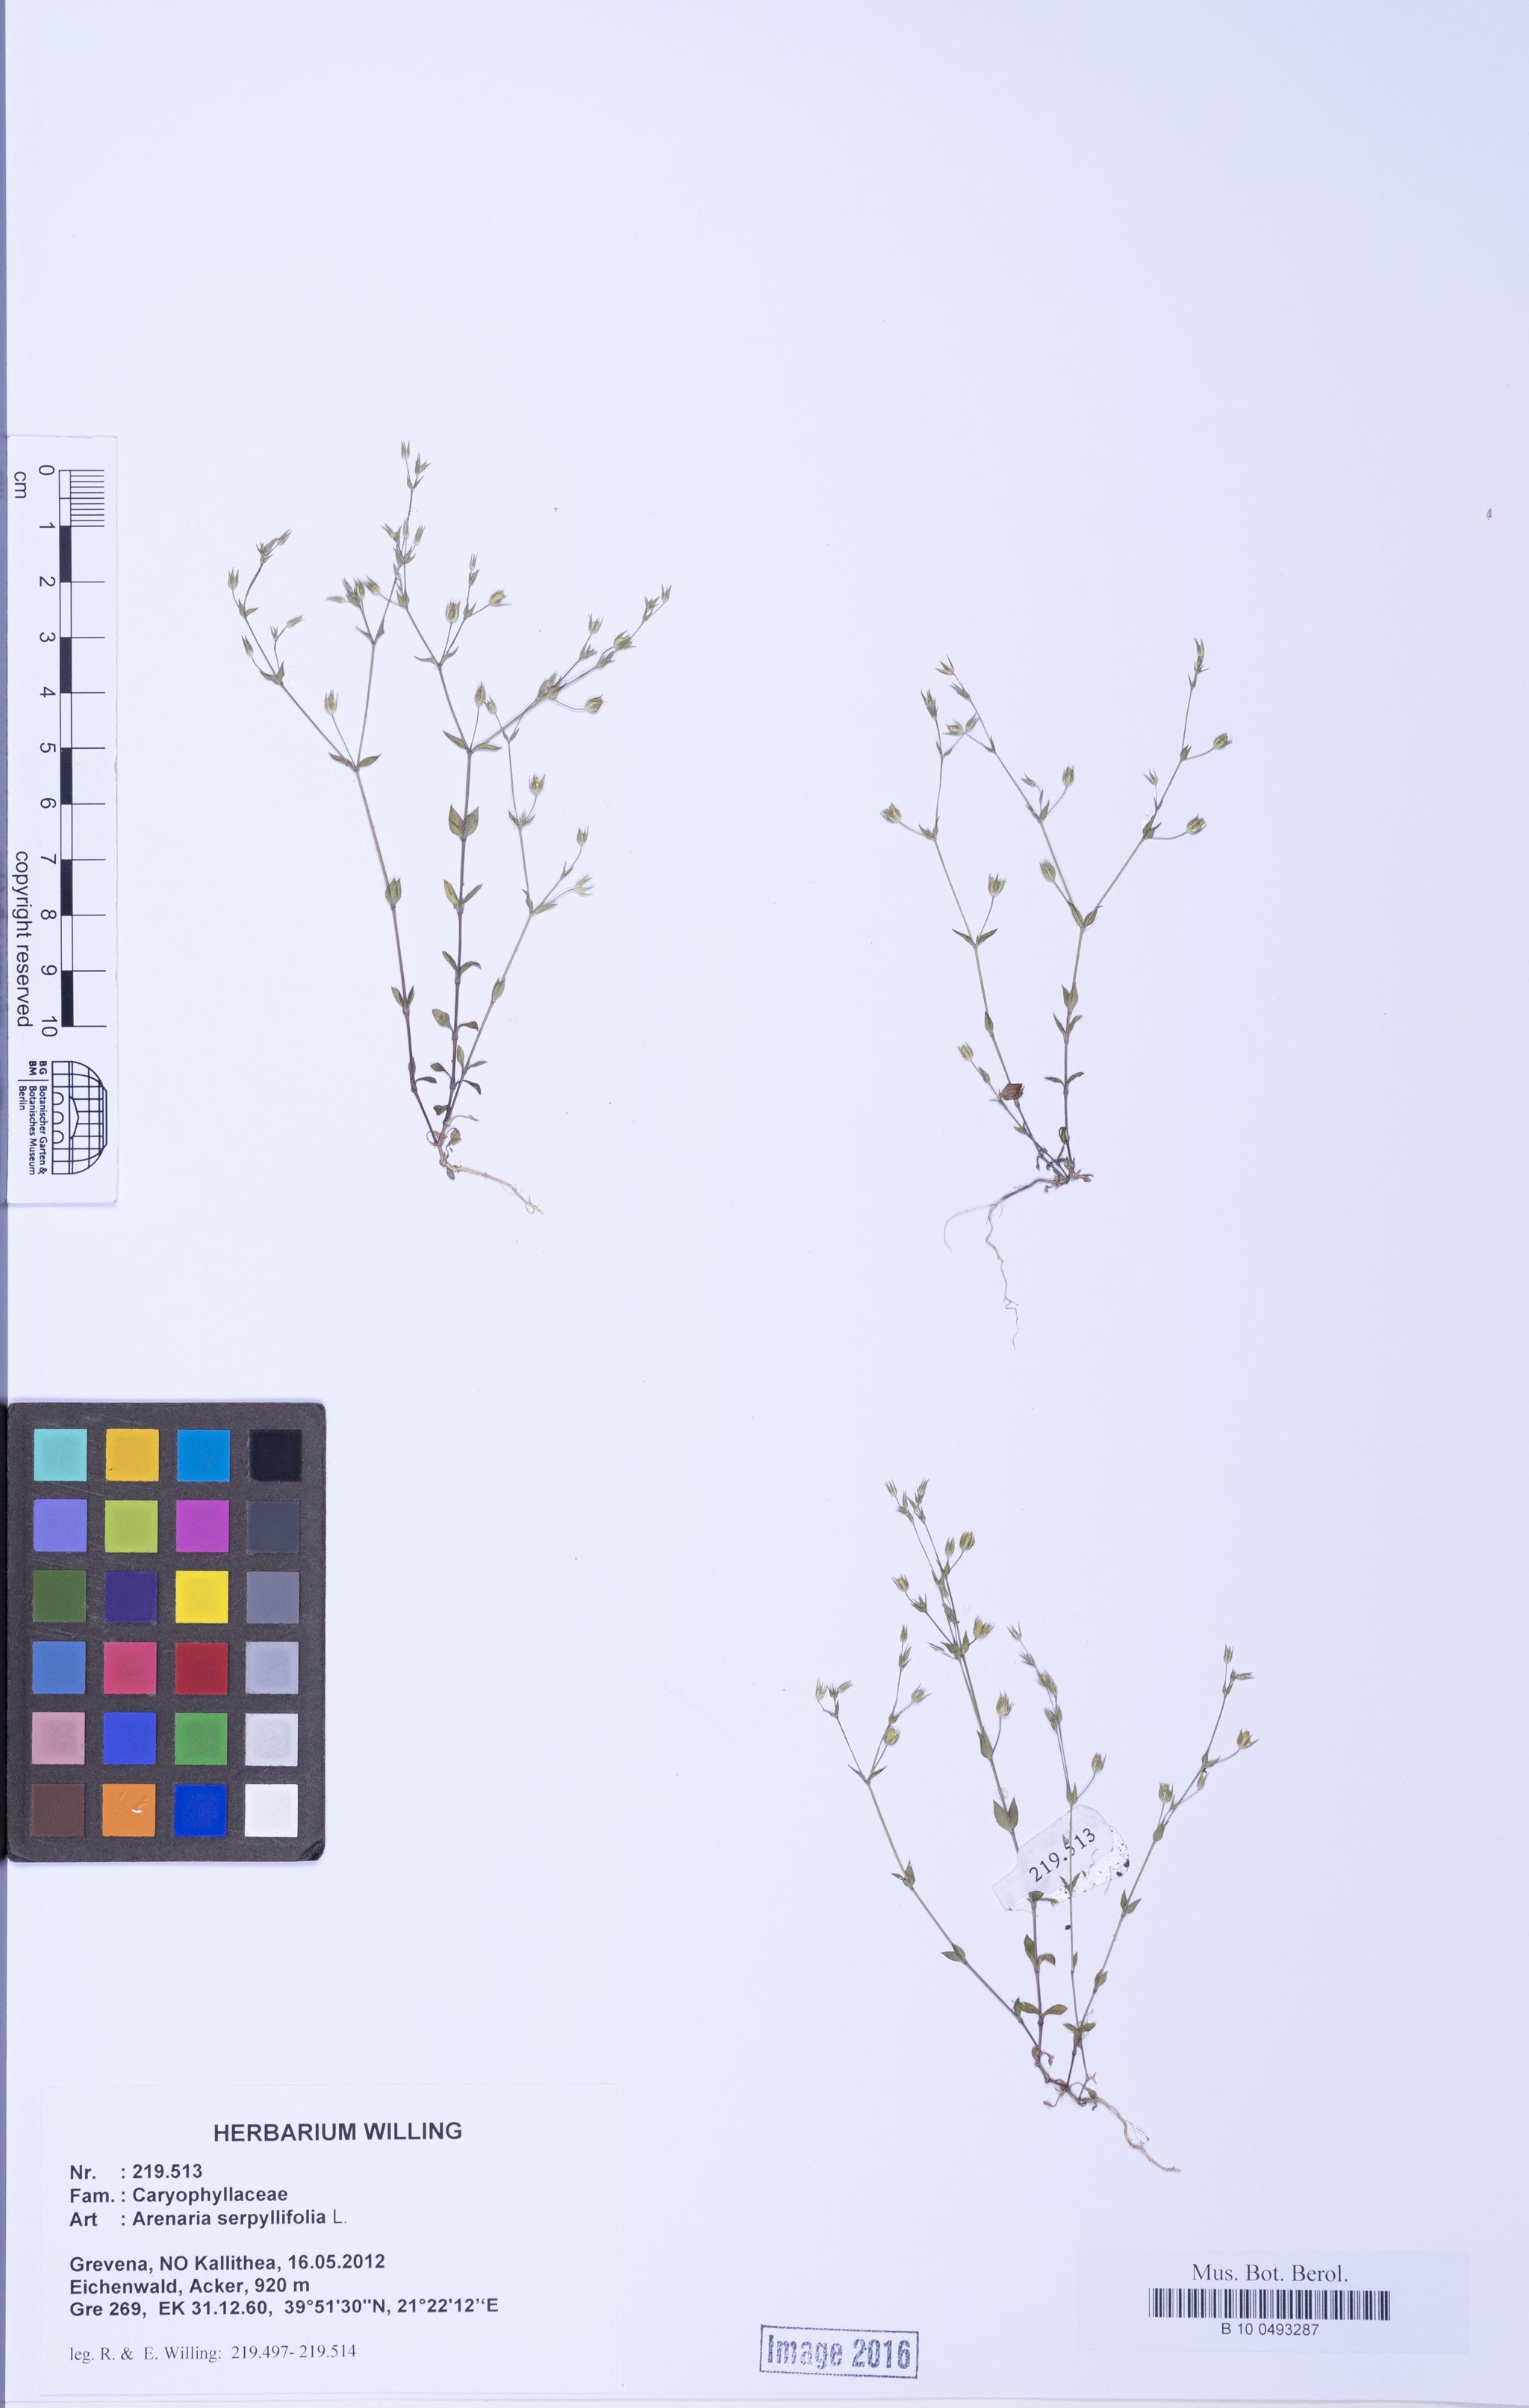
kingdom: Plantae
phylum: Tracheophyta
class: Magnoliopsida
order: Caryophyllales
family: Caryophyllaceae
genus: Arenaria
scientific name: Arenaria serpyllifolia
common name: Thyme-leaved sandwort
